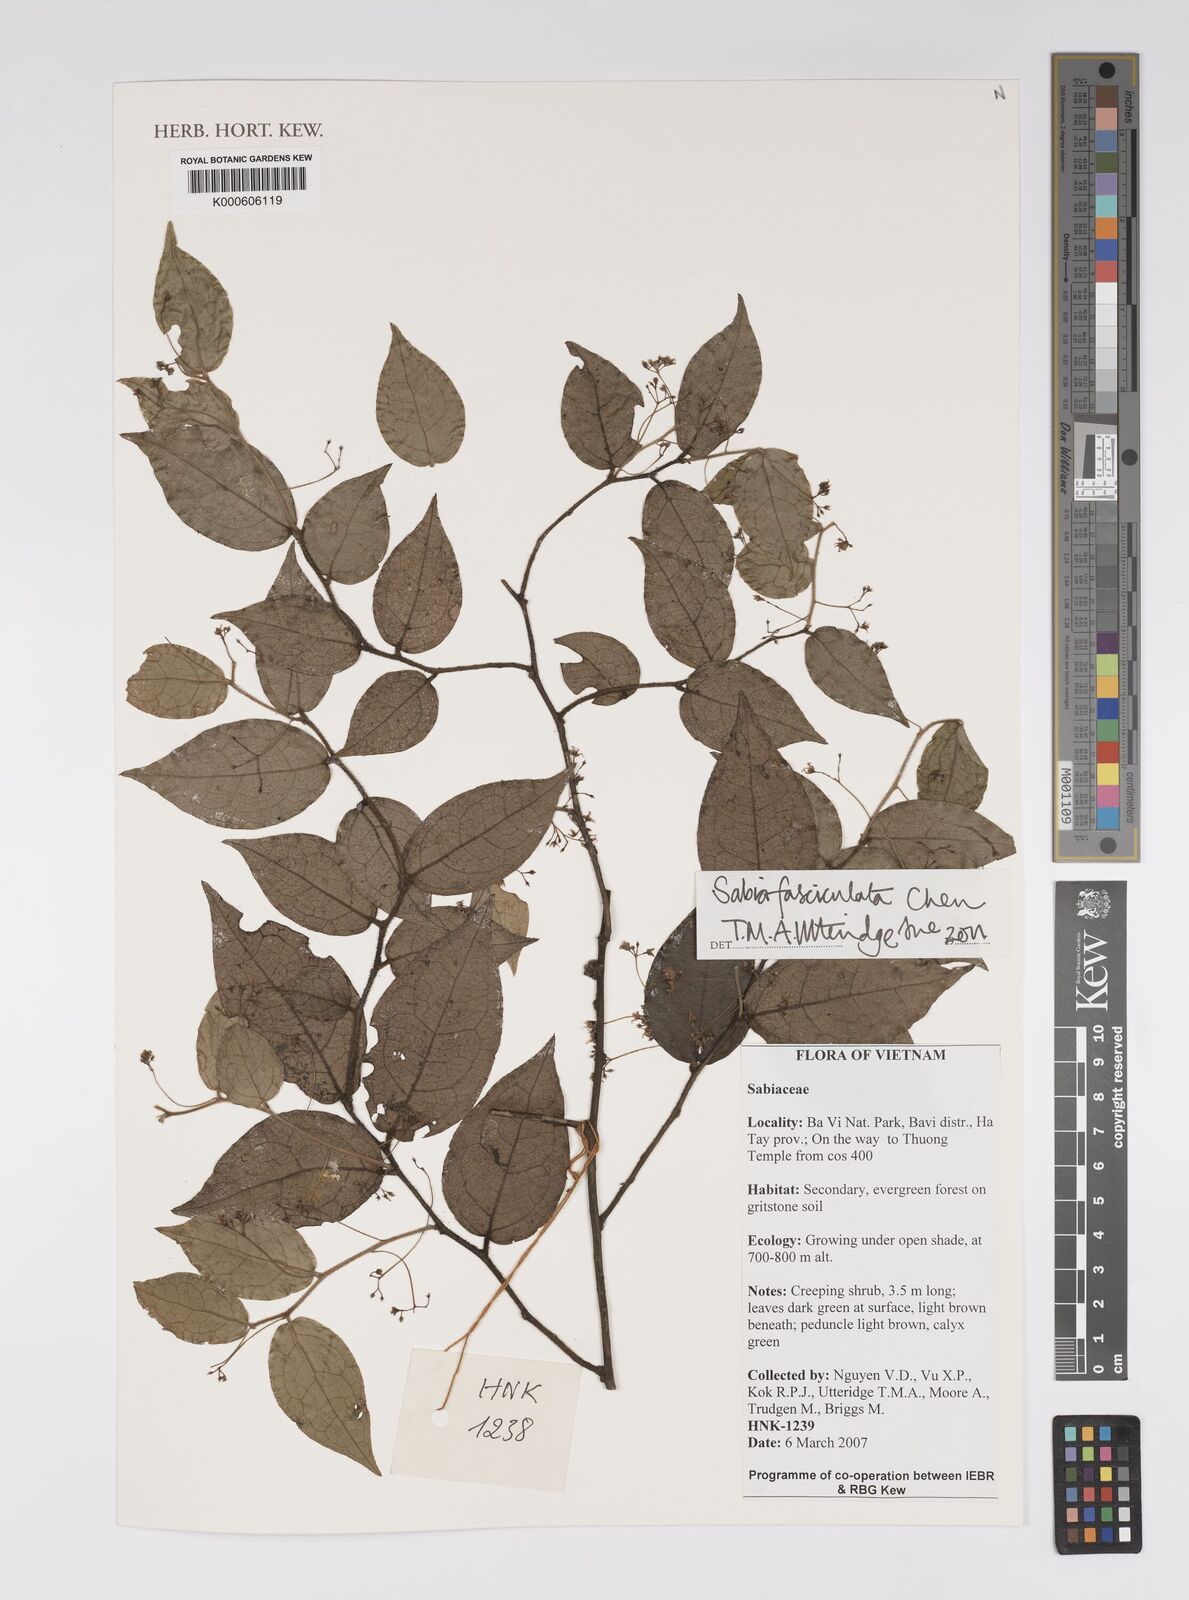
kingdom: Plantae
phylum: Tracheophyta
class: Magnoliopsida
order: Proteales
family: Sabiaceae
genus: Sabia
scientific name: Sabia fasciculata
